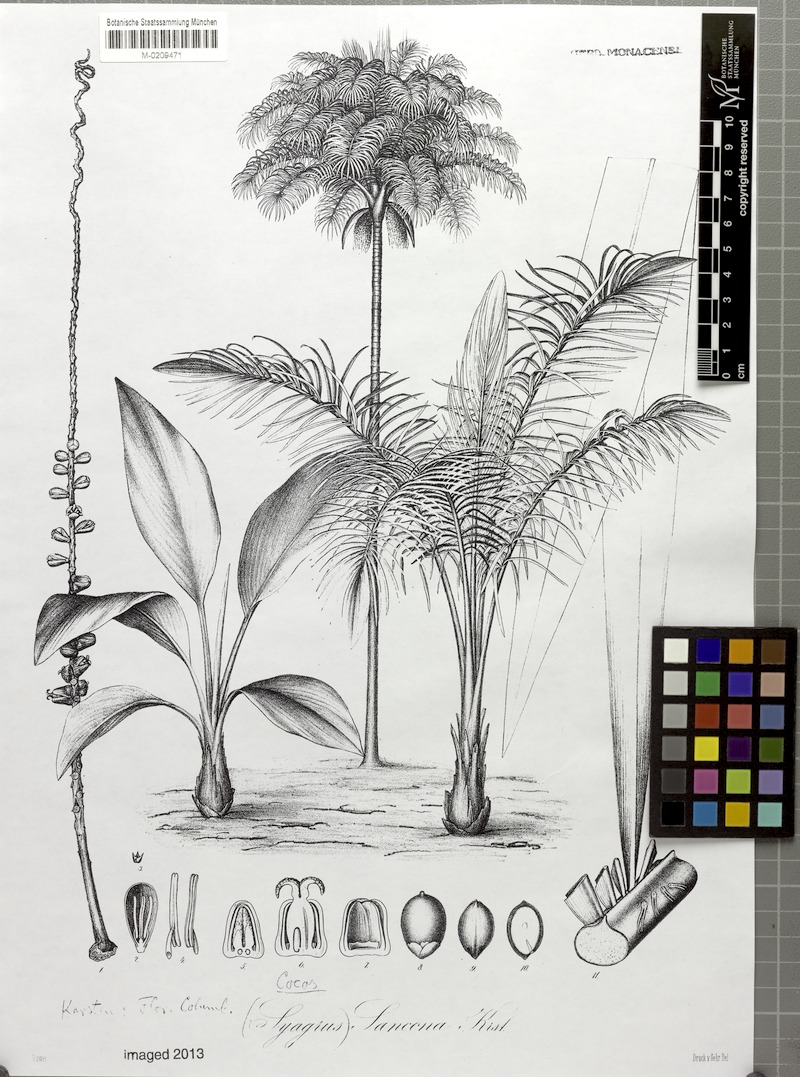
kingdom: Plantae
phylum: Tracheophyta
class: Liliopsida
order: Arecales
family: Arecaceae
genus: Syagrus
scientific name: Syagrus sancona
